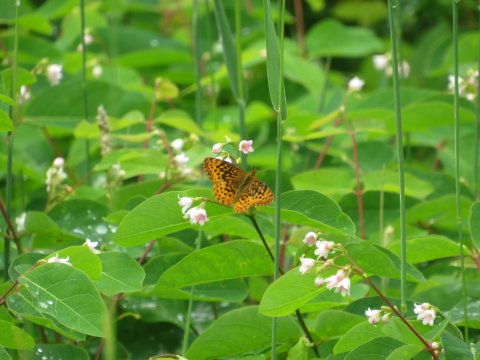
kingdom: Animalia
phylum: Arthropoda
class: Insecta
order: Lepidoptera
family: Nymphalidae
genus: Clossiana
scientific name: Clossiana toddi
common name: Meadow Fritillary
